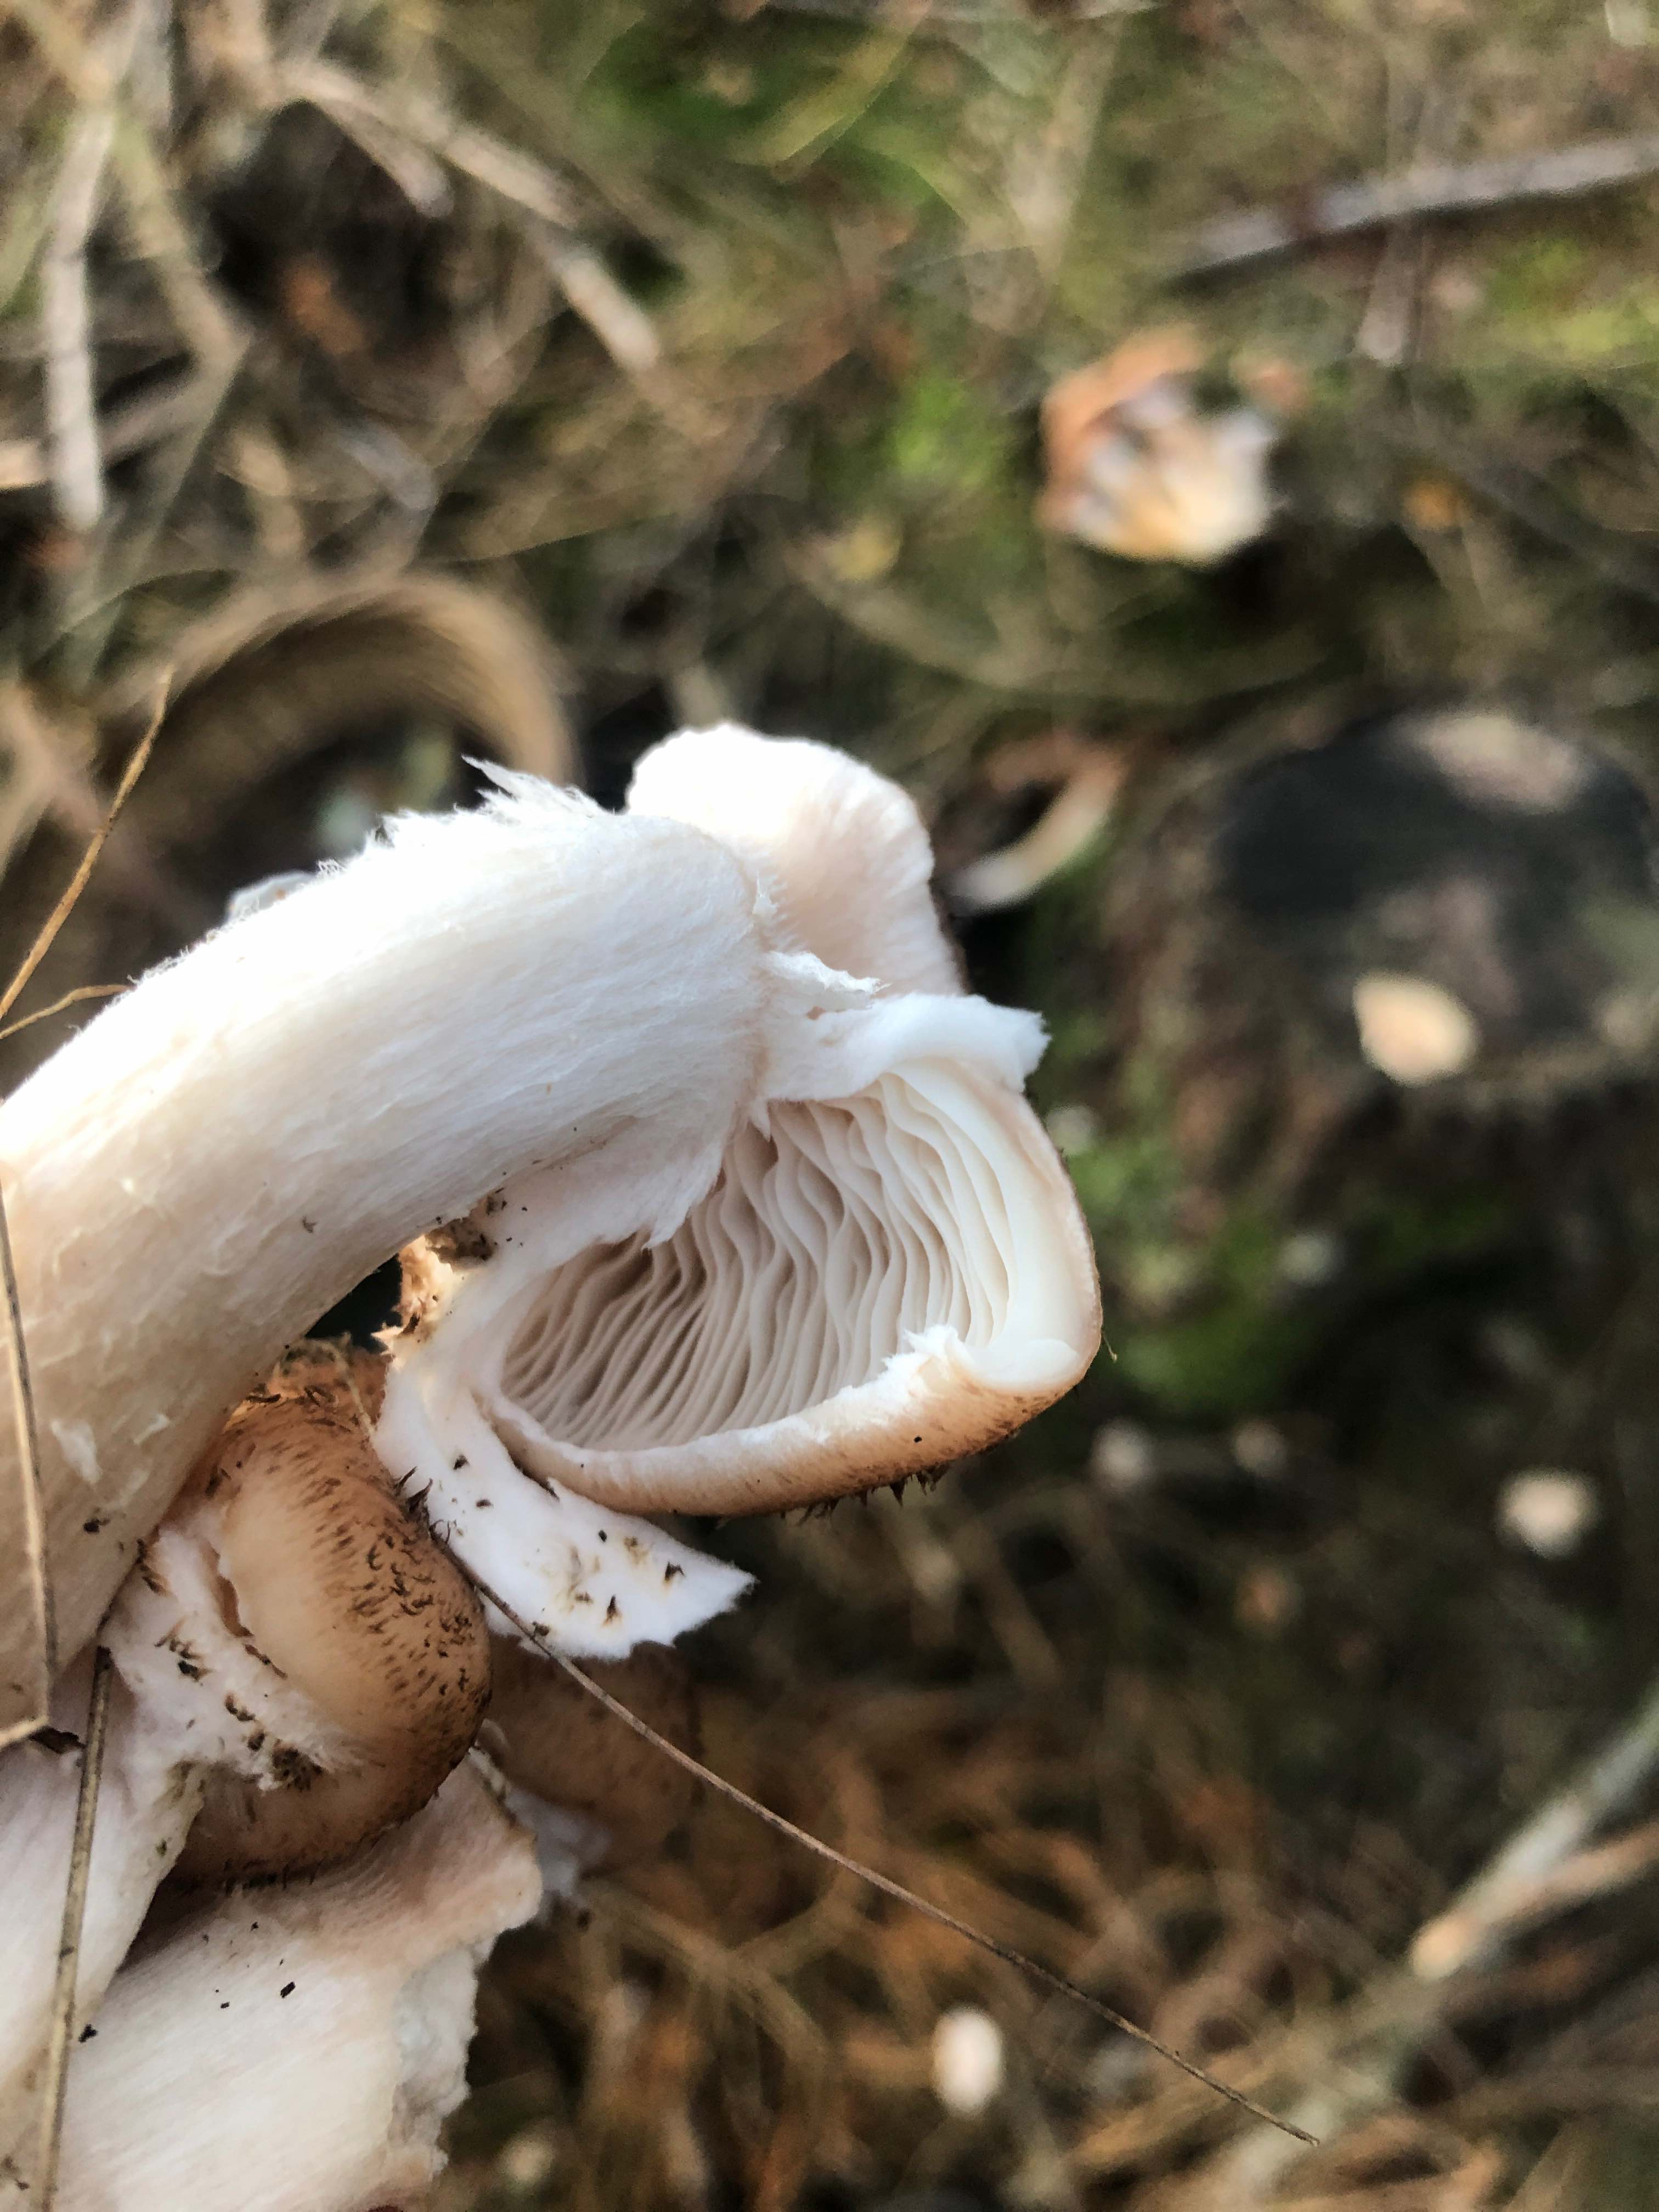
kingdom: Fungi
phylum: Basidiomycota
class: Agaricomycetes
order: Agaricales
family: Physalacriaceae
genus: Armillaria
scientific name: Armillaria ostoyae
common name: mørk honningsvamp
